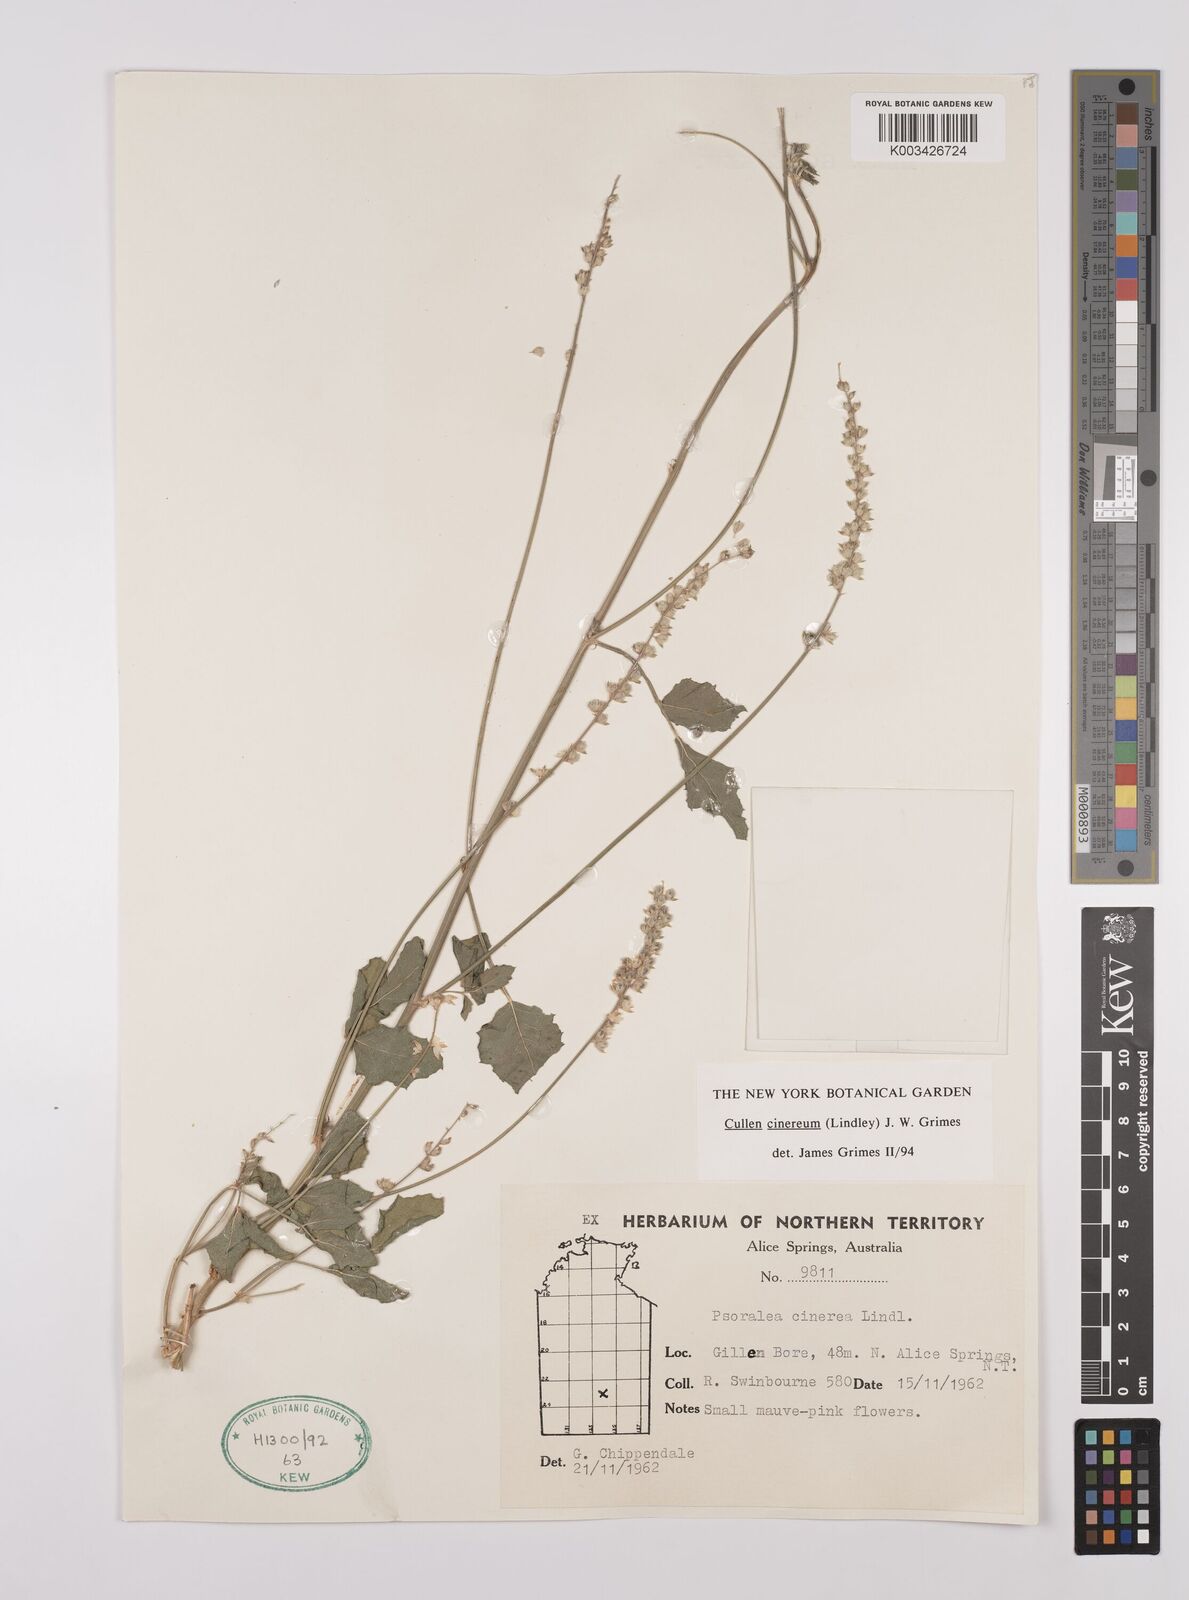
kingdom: Plantae
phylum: Tracheophyta
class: Magnoliopsida
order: Fabales
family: Fabaceae
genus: Cullen
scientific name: Cullen cinereum
